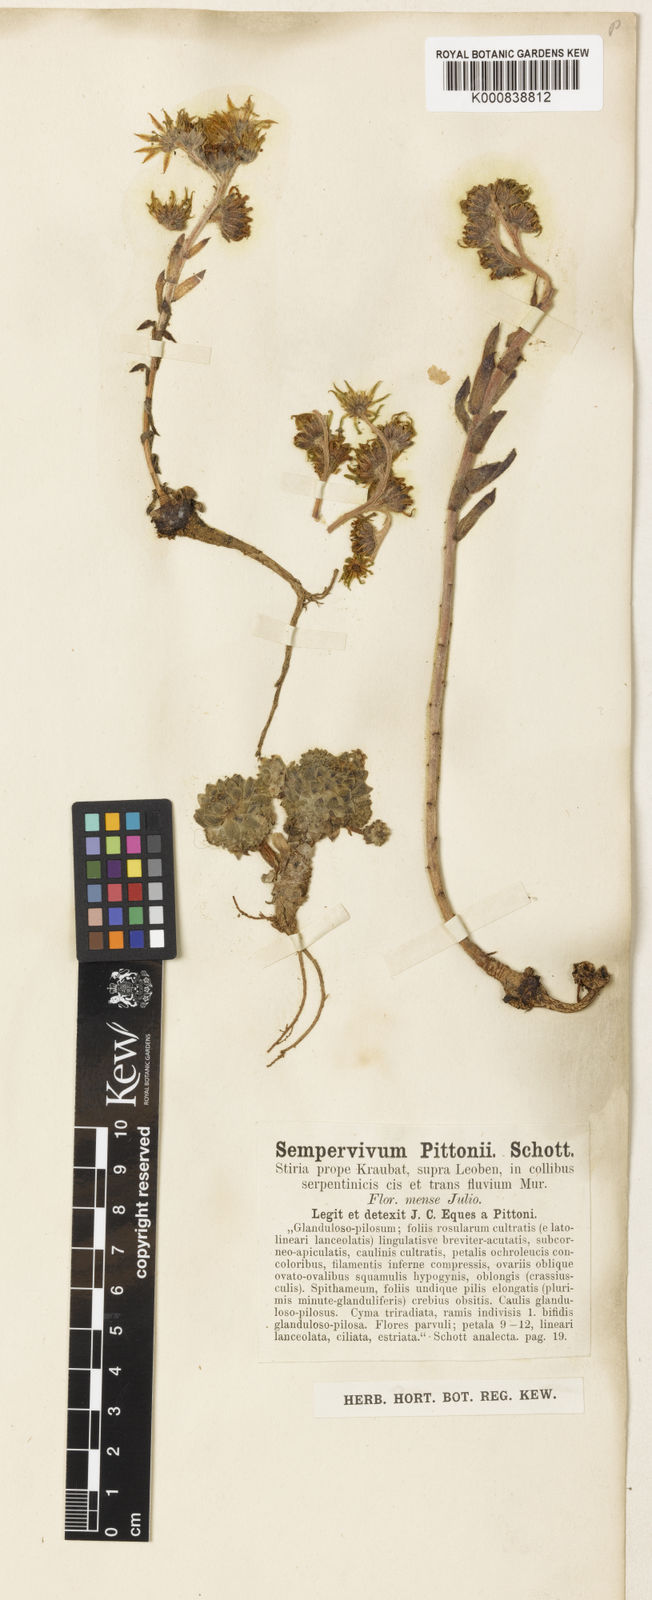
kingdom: Plantae
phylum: Tracheophyta
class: Magnoliopsida
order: Saxifragales
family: Crassulaceae
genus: Sempervivum
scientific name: Sempervivum pittonii
